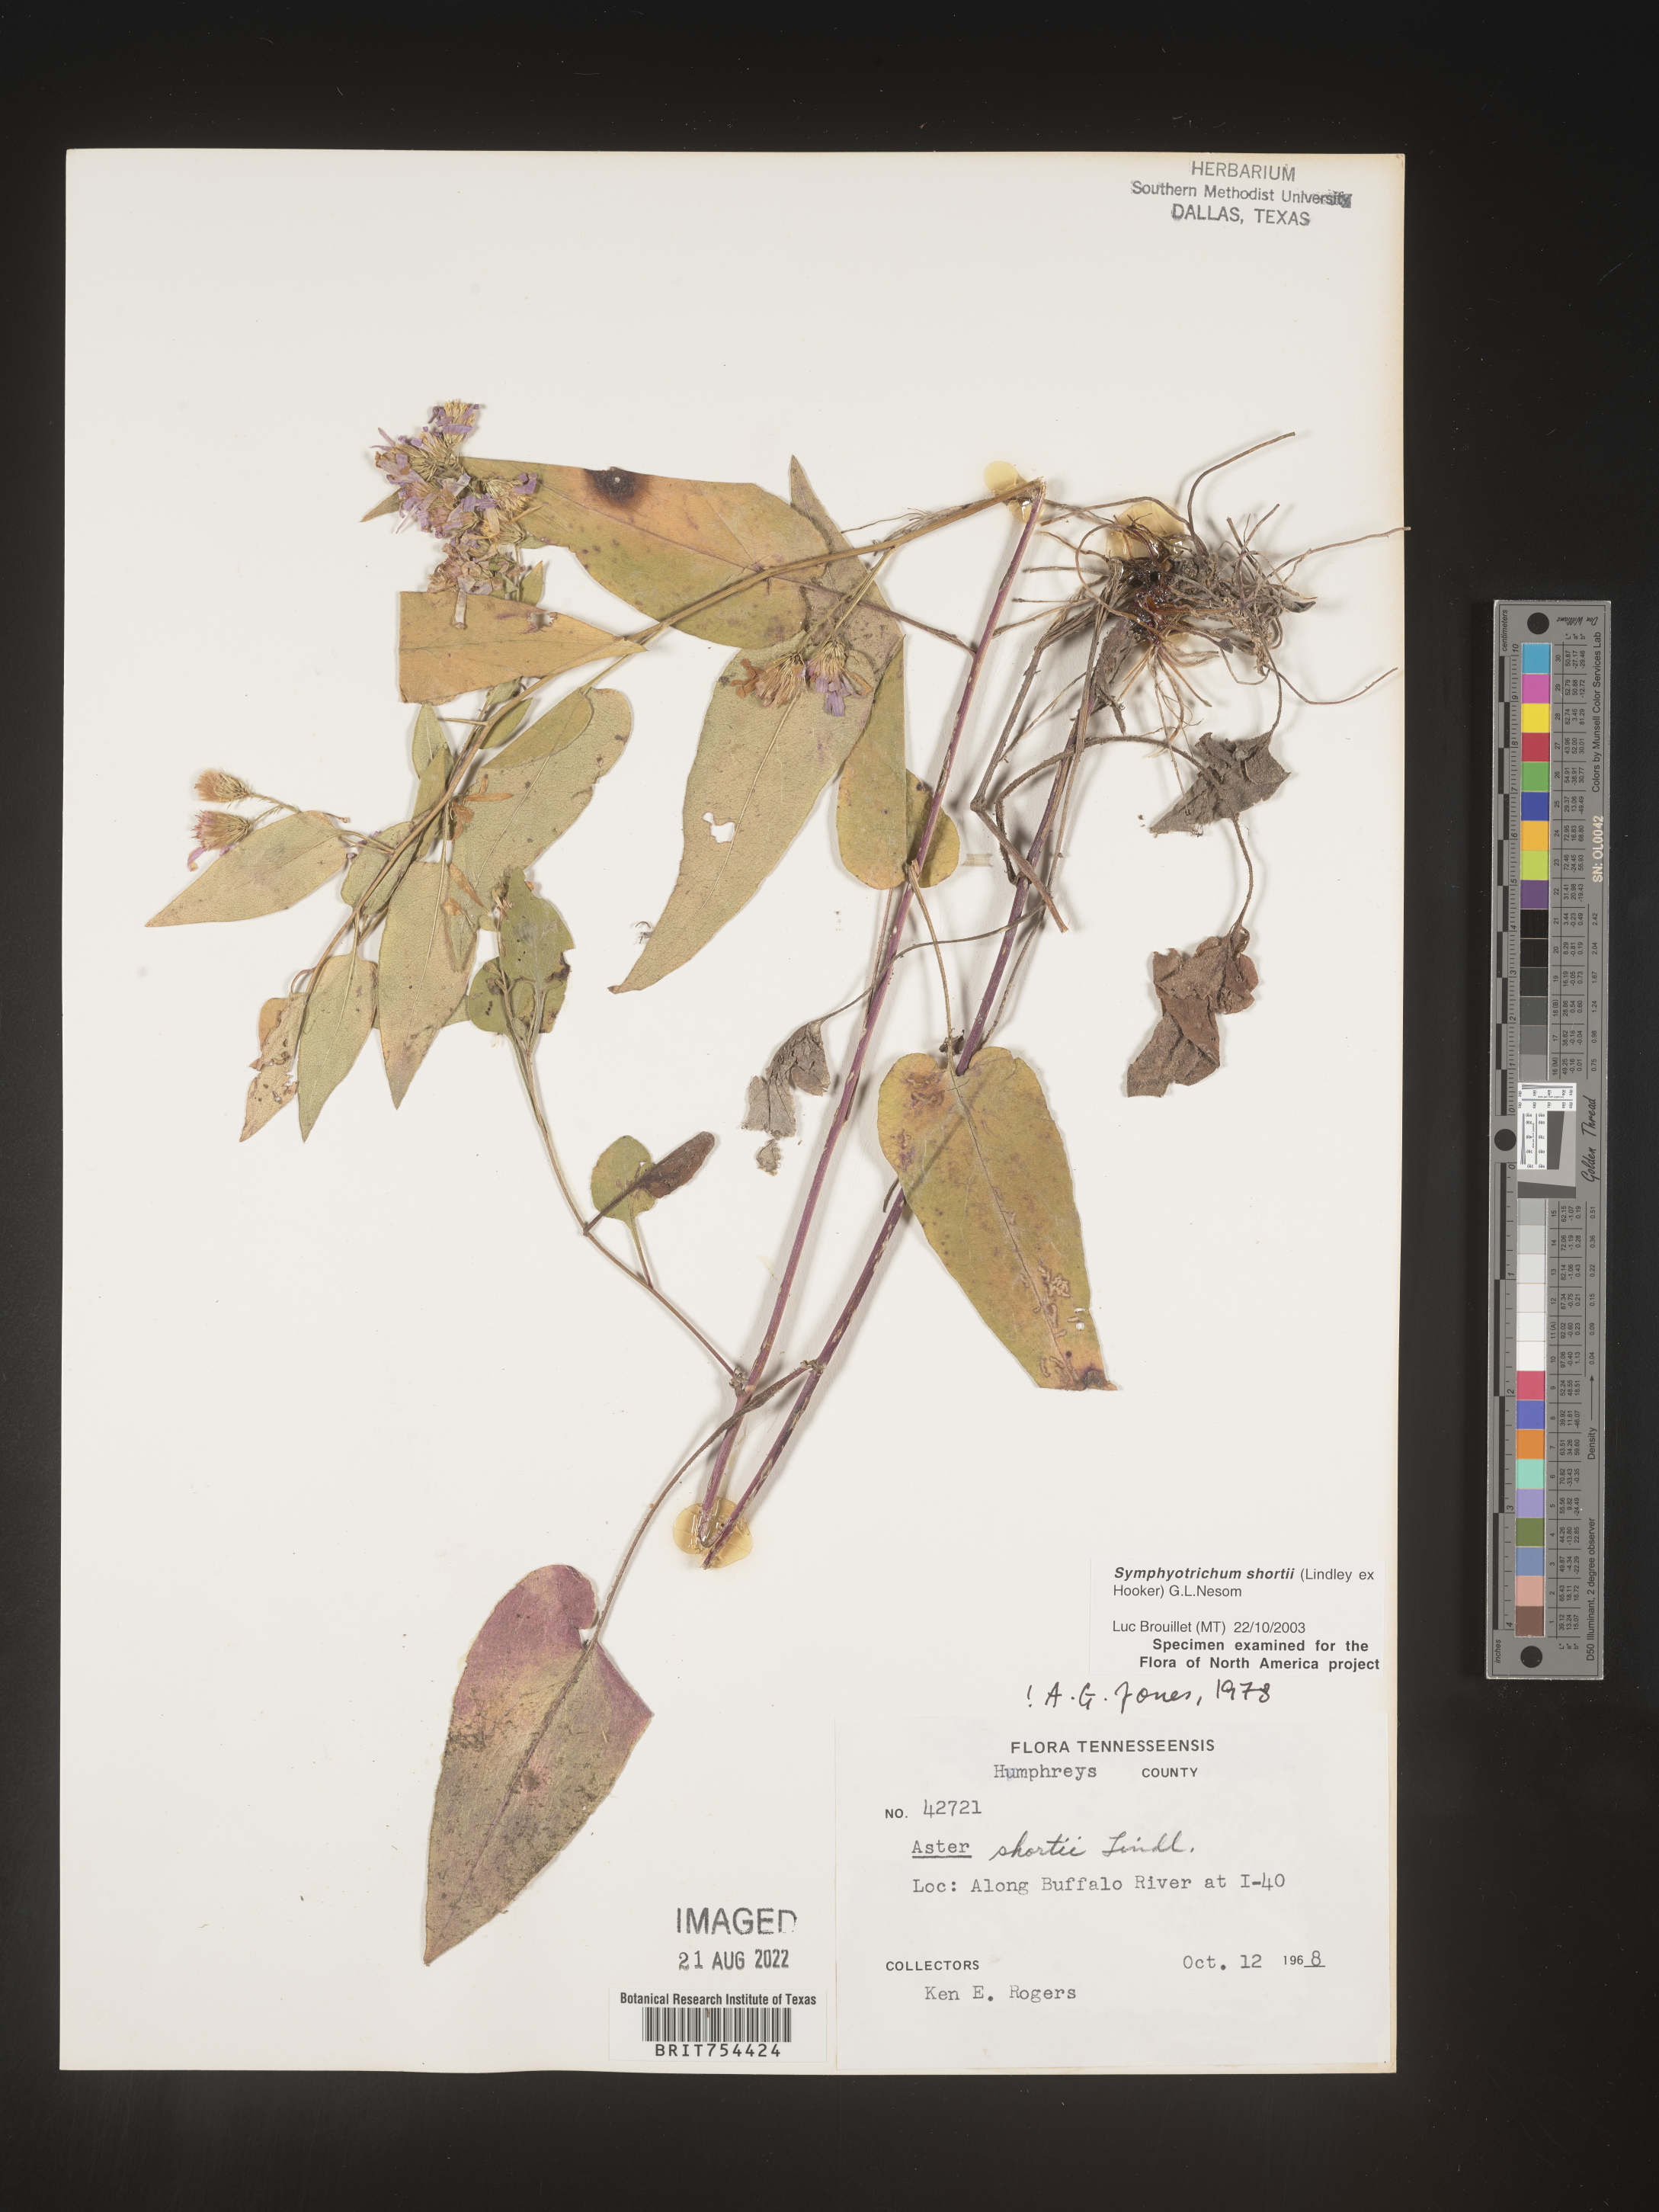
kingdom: Plantae
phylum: Tracheophyta
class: Magnoliopsida
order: Asterales
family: Asteraceae
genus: Symphyotrichum
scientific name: Symphyotrichum shortii
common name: Short's aster
